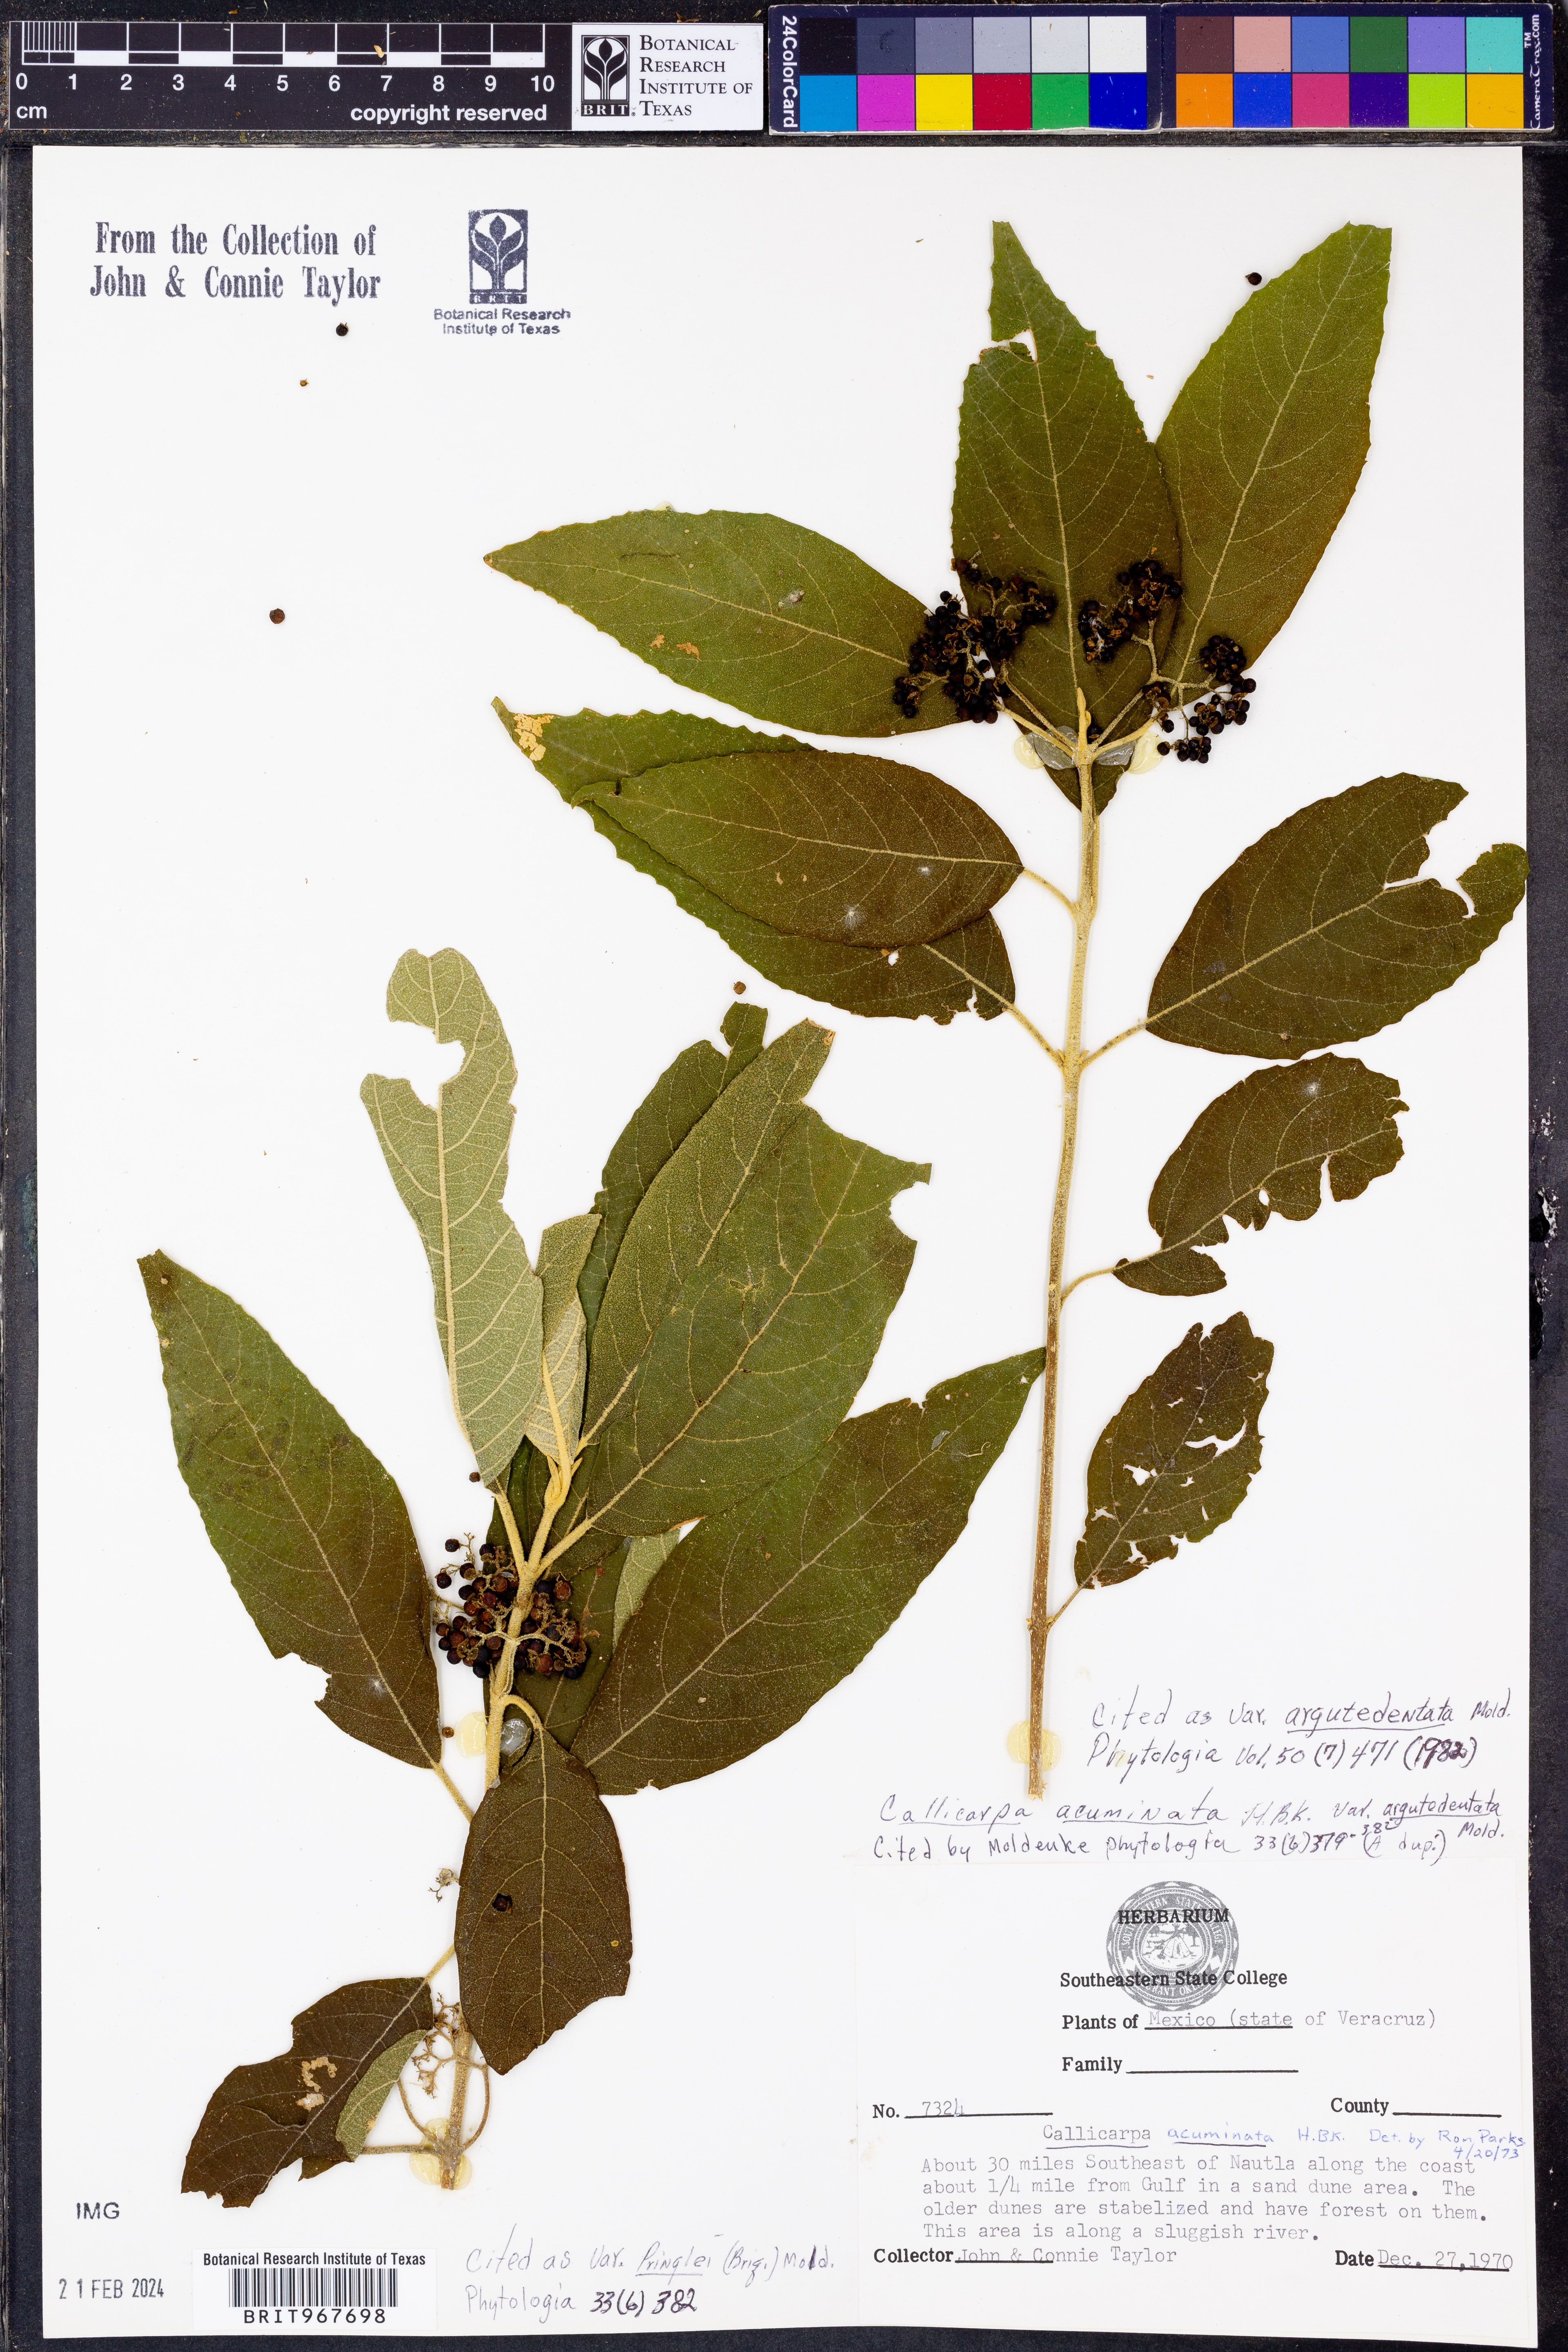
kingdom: Plantae
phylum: Tracheophyta
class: Magnoliopsida
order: Lamiales
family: Lamiaceae
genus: Callicarpa
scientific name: Callicarpa
